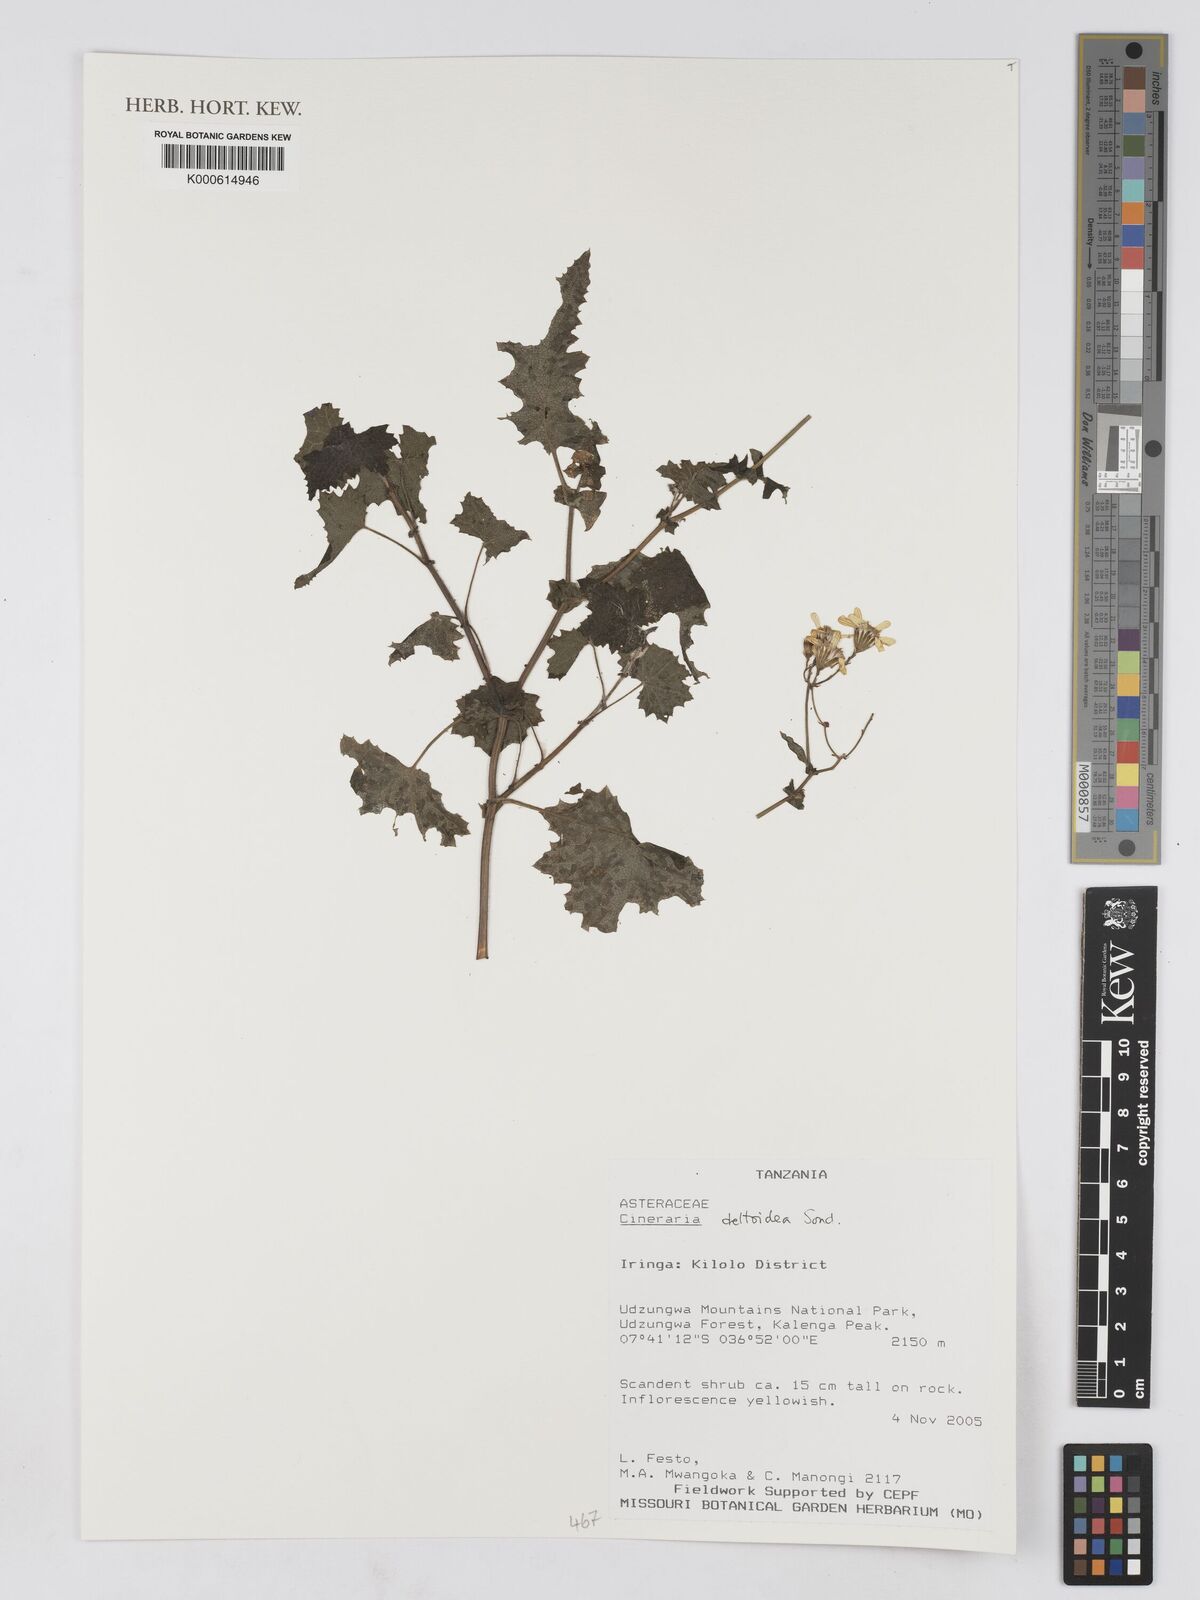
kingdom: Plantae
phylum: Tracheophyta
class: Magnoliopsida
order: Asterales
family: Asteraceae
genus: Cineraria
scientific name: Cineraria deltoidea
